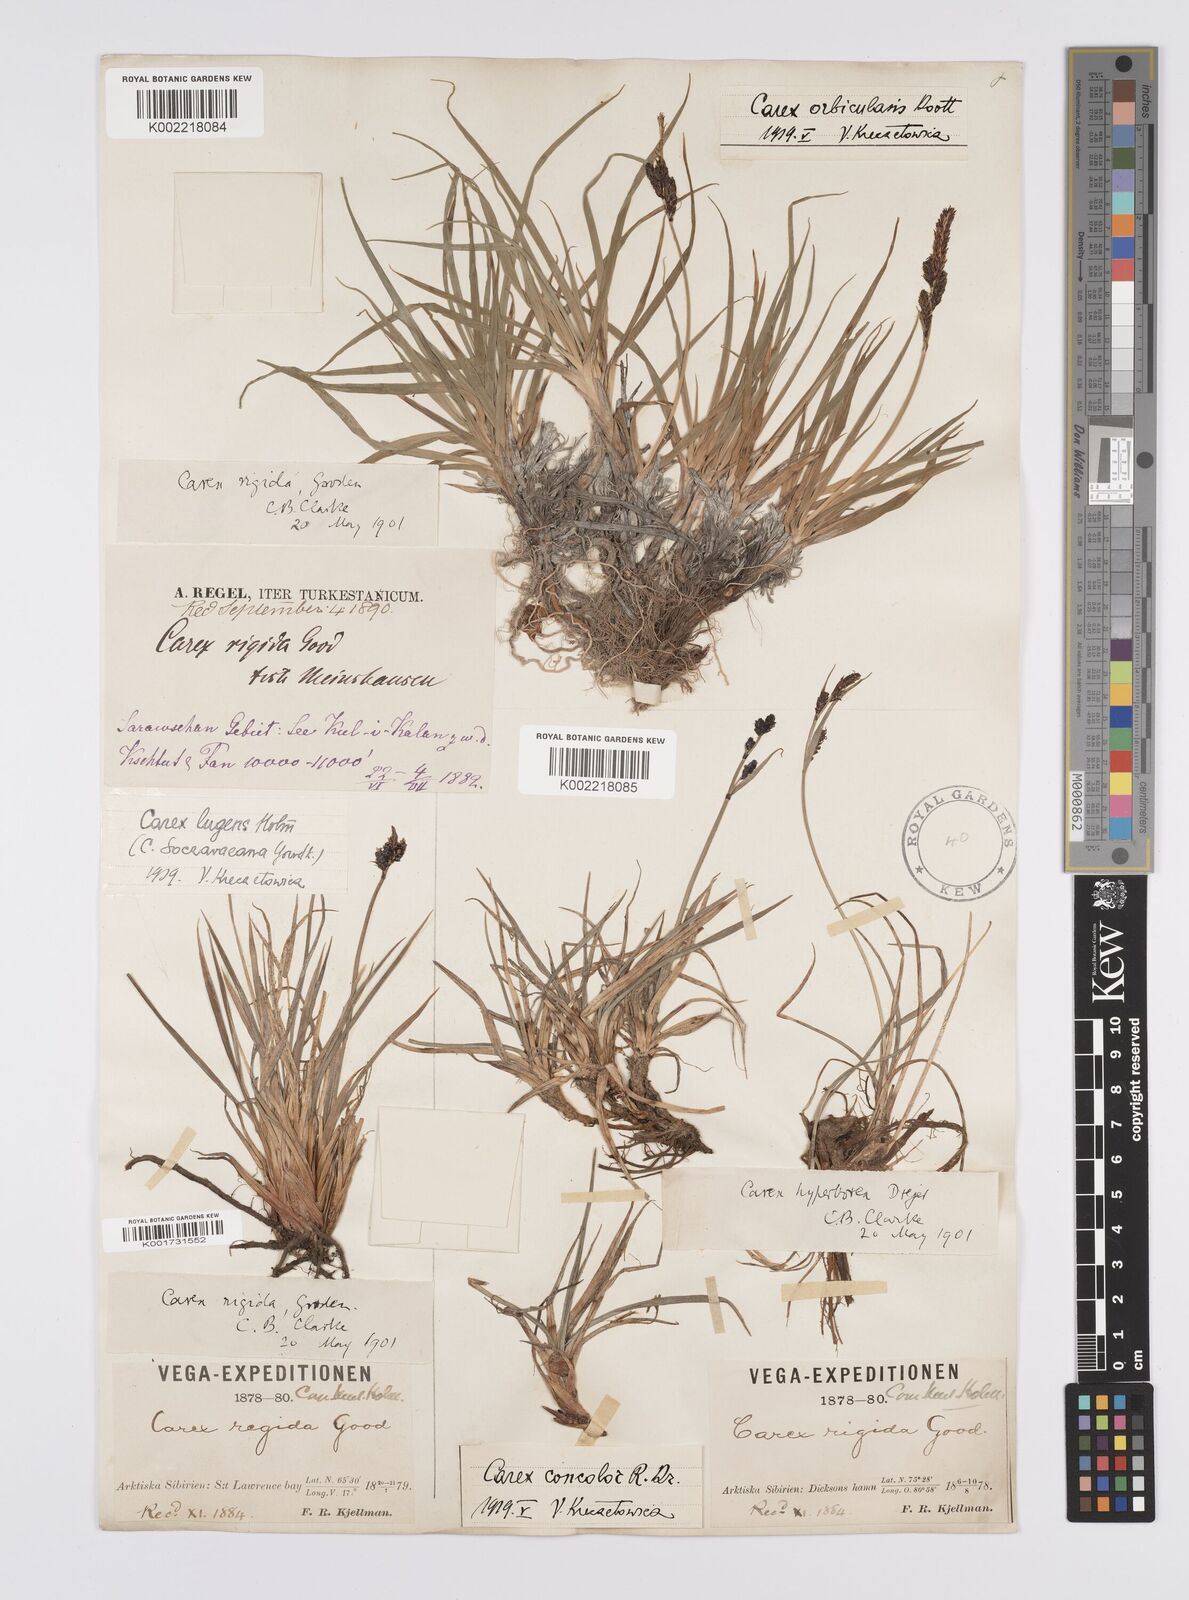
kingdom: Plantae
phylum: Tracheophyta
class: Liliopsida
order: Poales
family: Cyperaceae
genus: Carex
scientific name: Carex dacica
